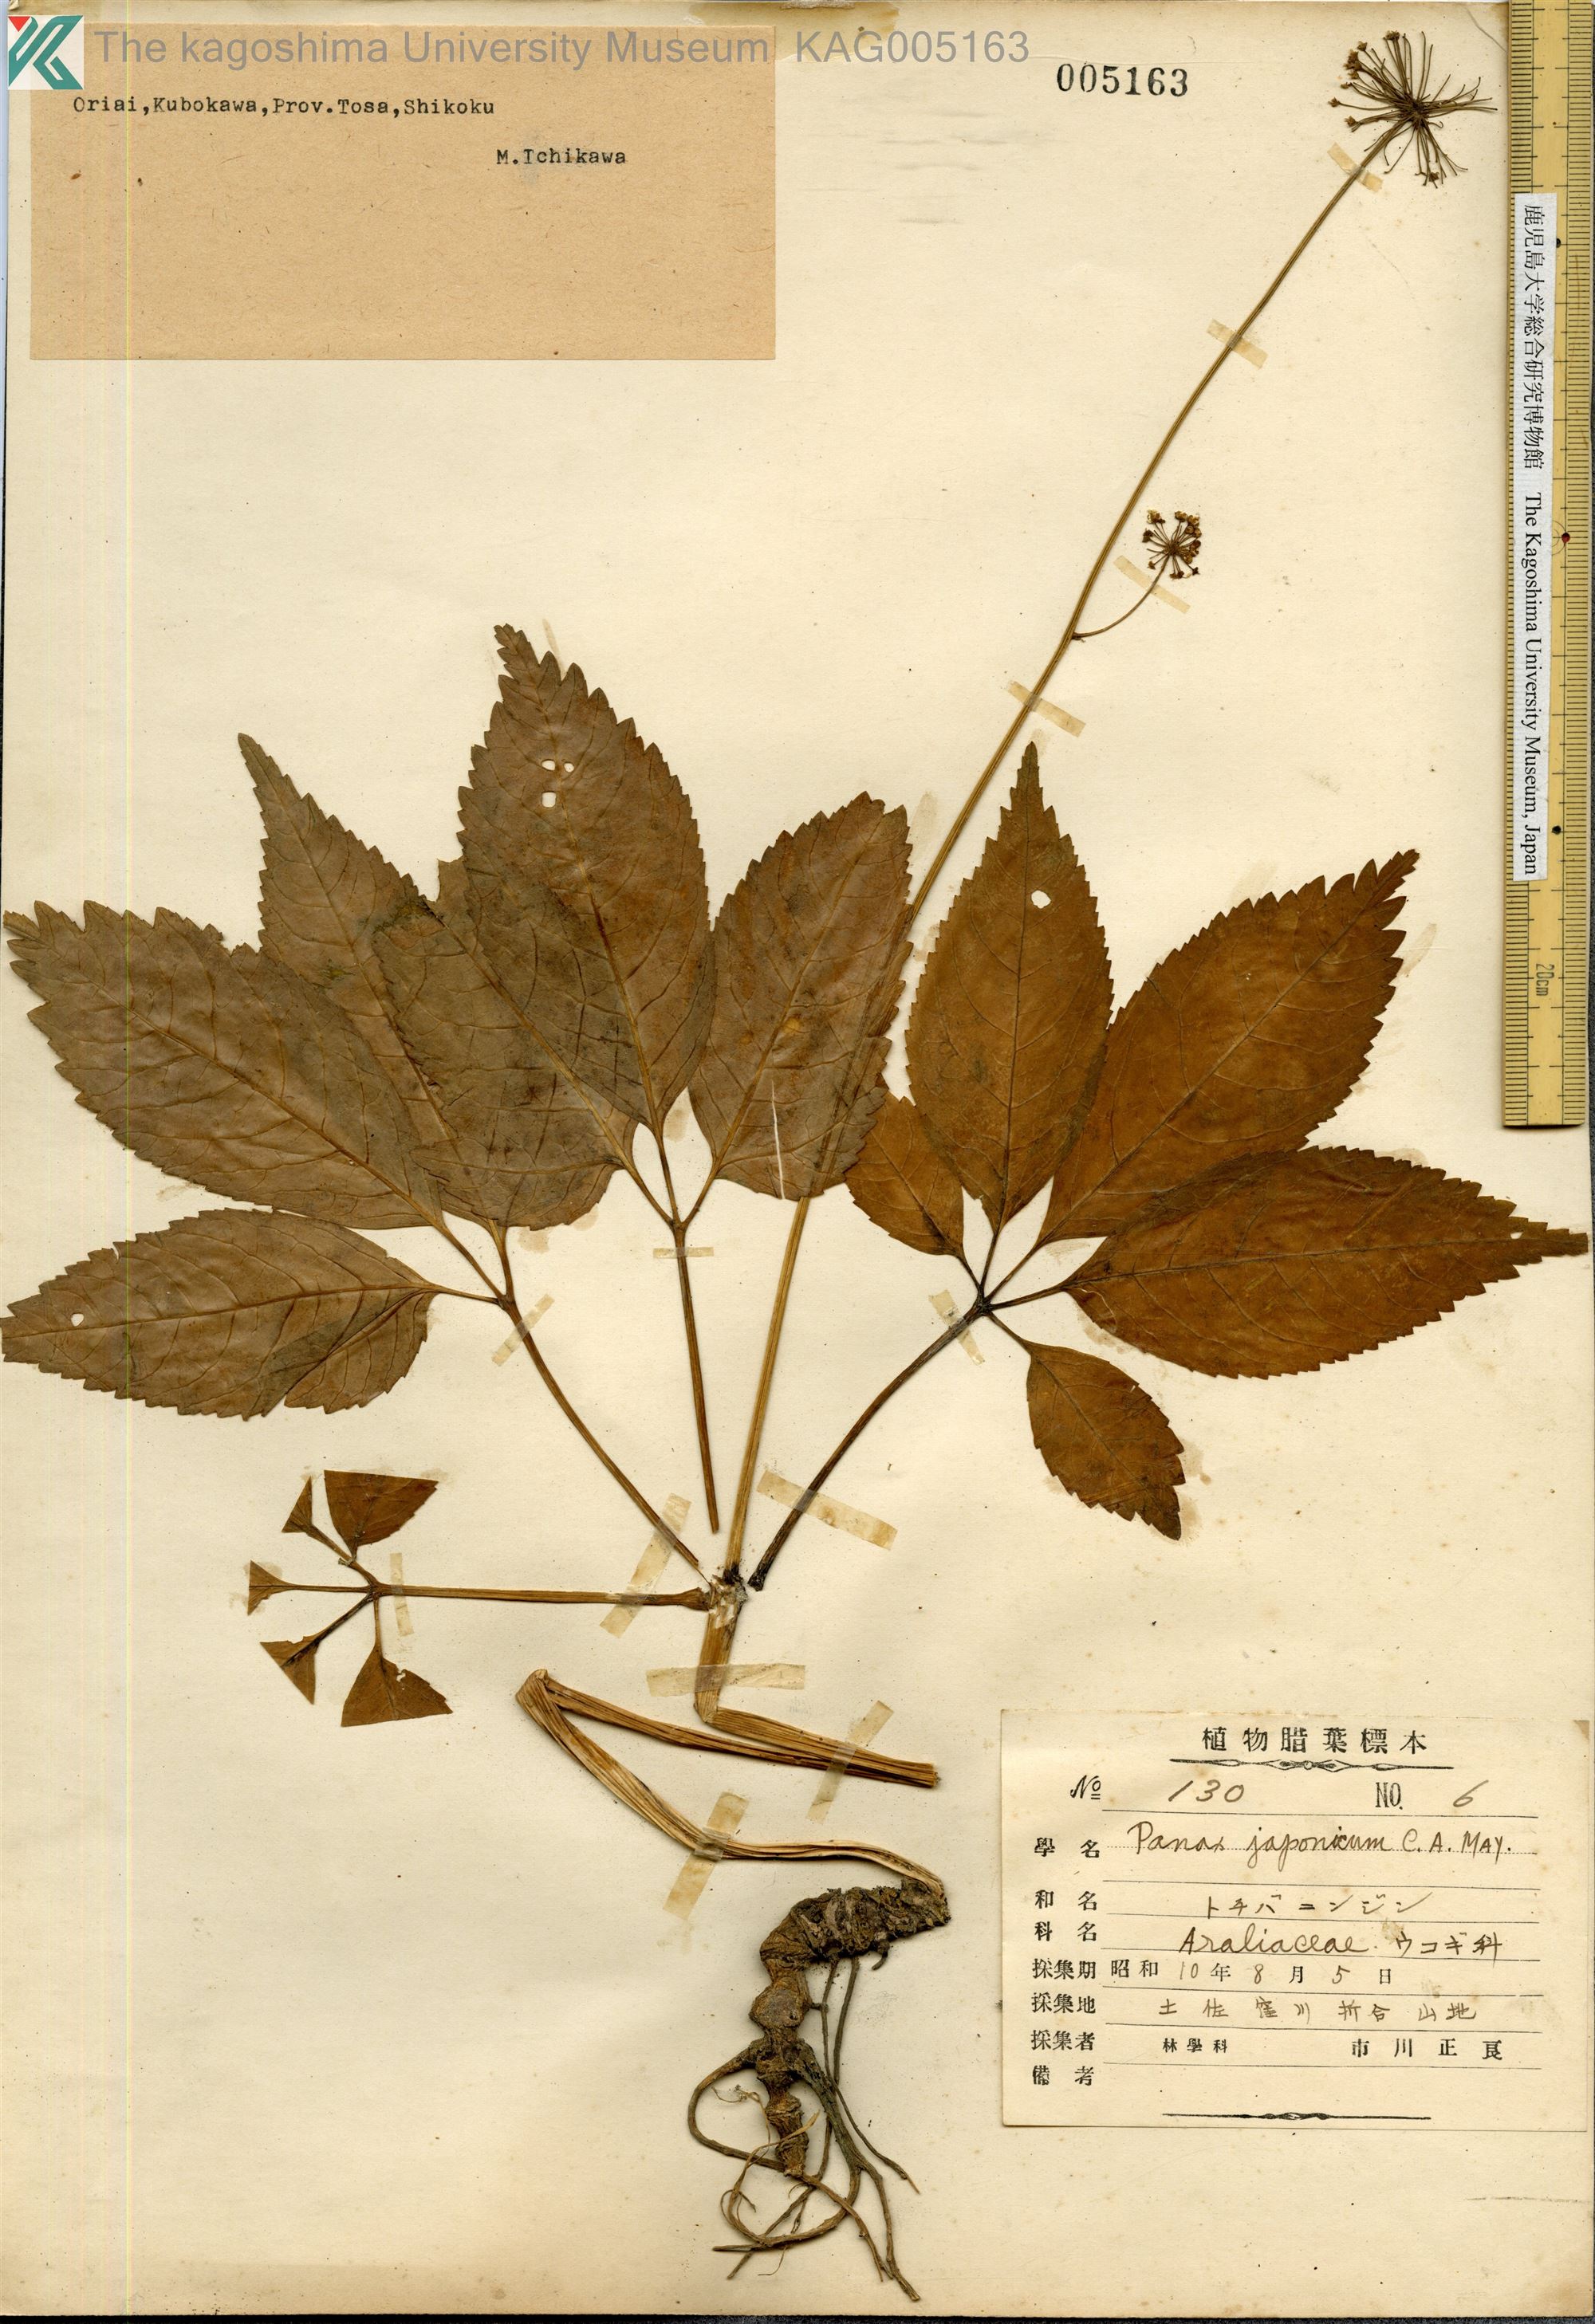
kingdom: Plantae
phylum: Tracheophyta
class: Magnoliopsida
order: Apiales
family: Araliaceae
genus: Panax
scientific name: Panax japonicus
